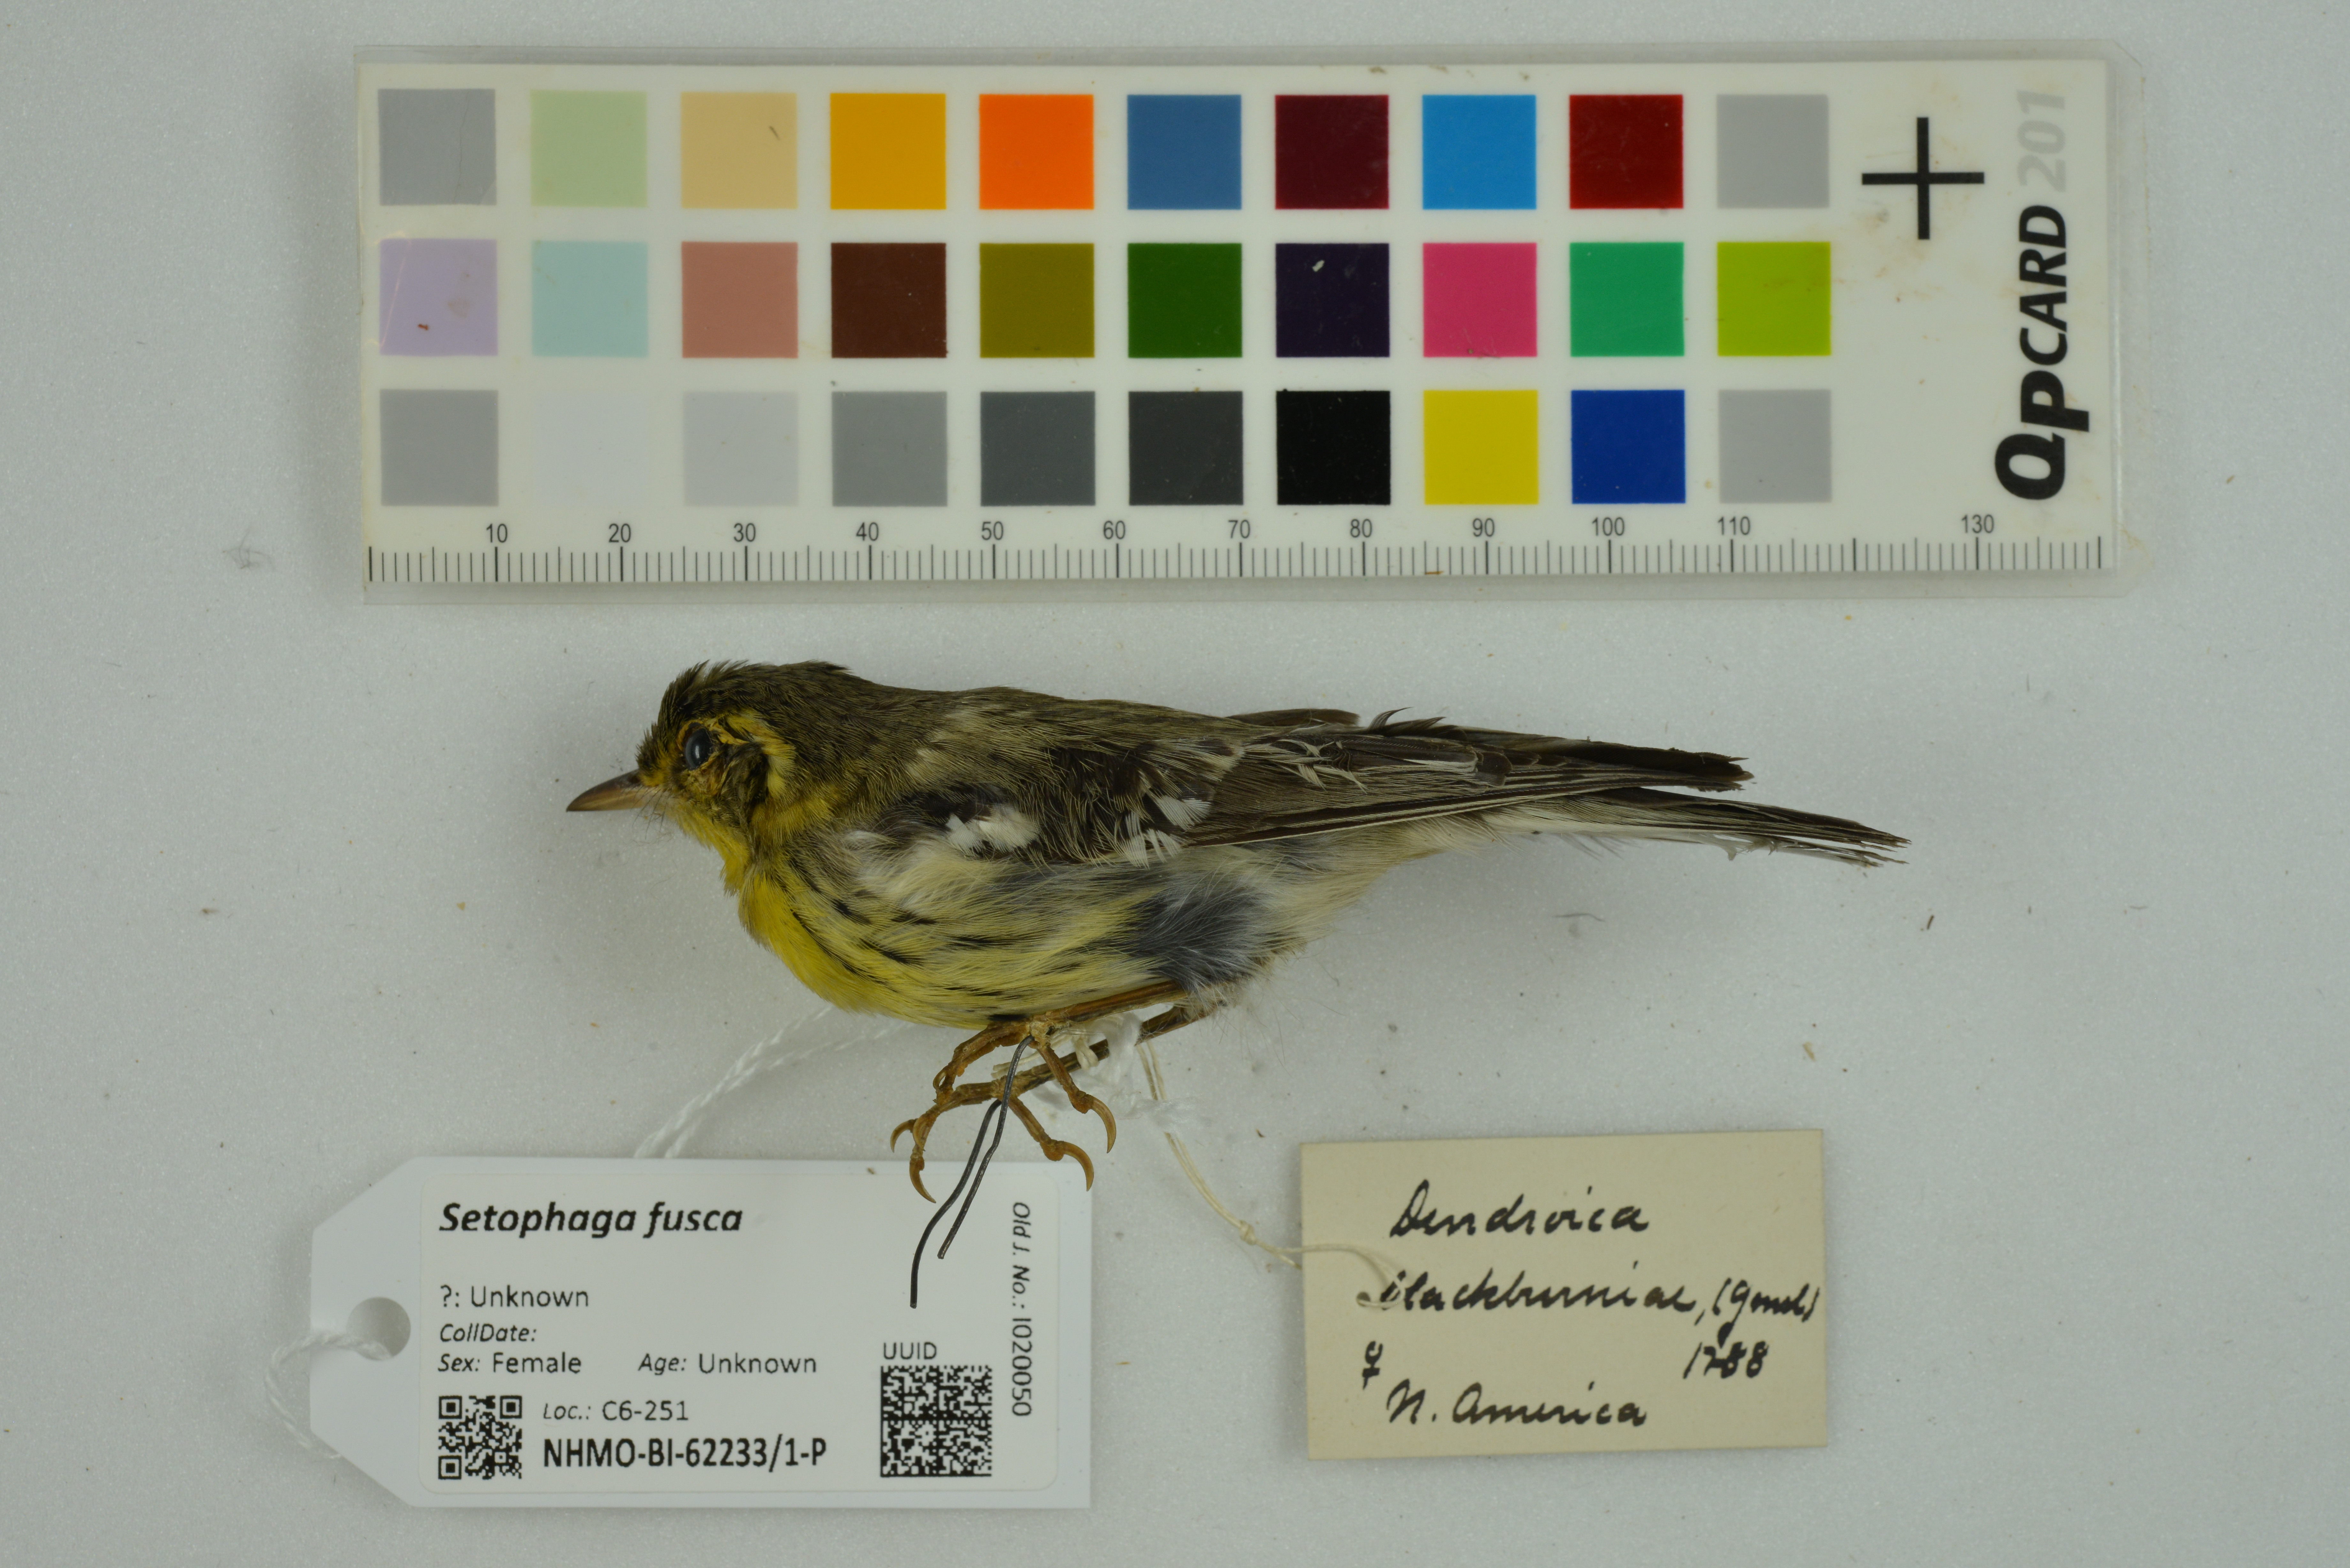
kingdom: Animalia
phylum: Chordata
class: Aves
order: Passeriformes
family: Parulidae
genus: Setophaga
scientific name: Setophaga fusca
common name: Blackburnian warbler
